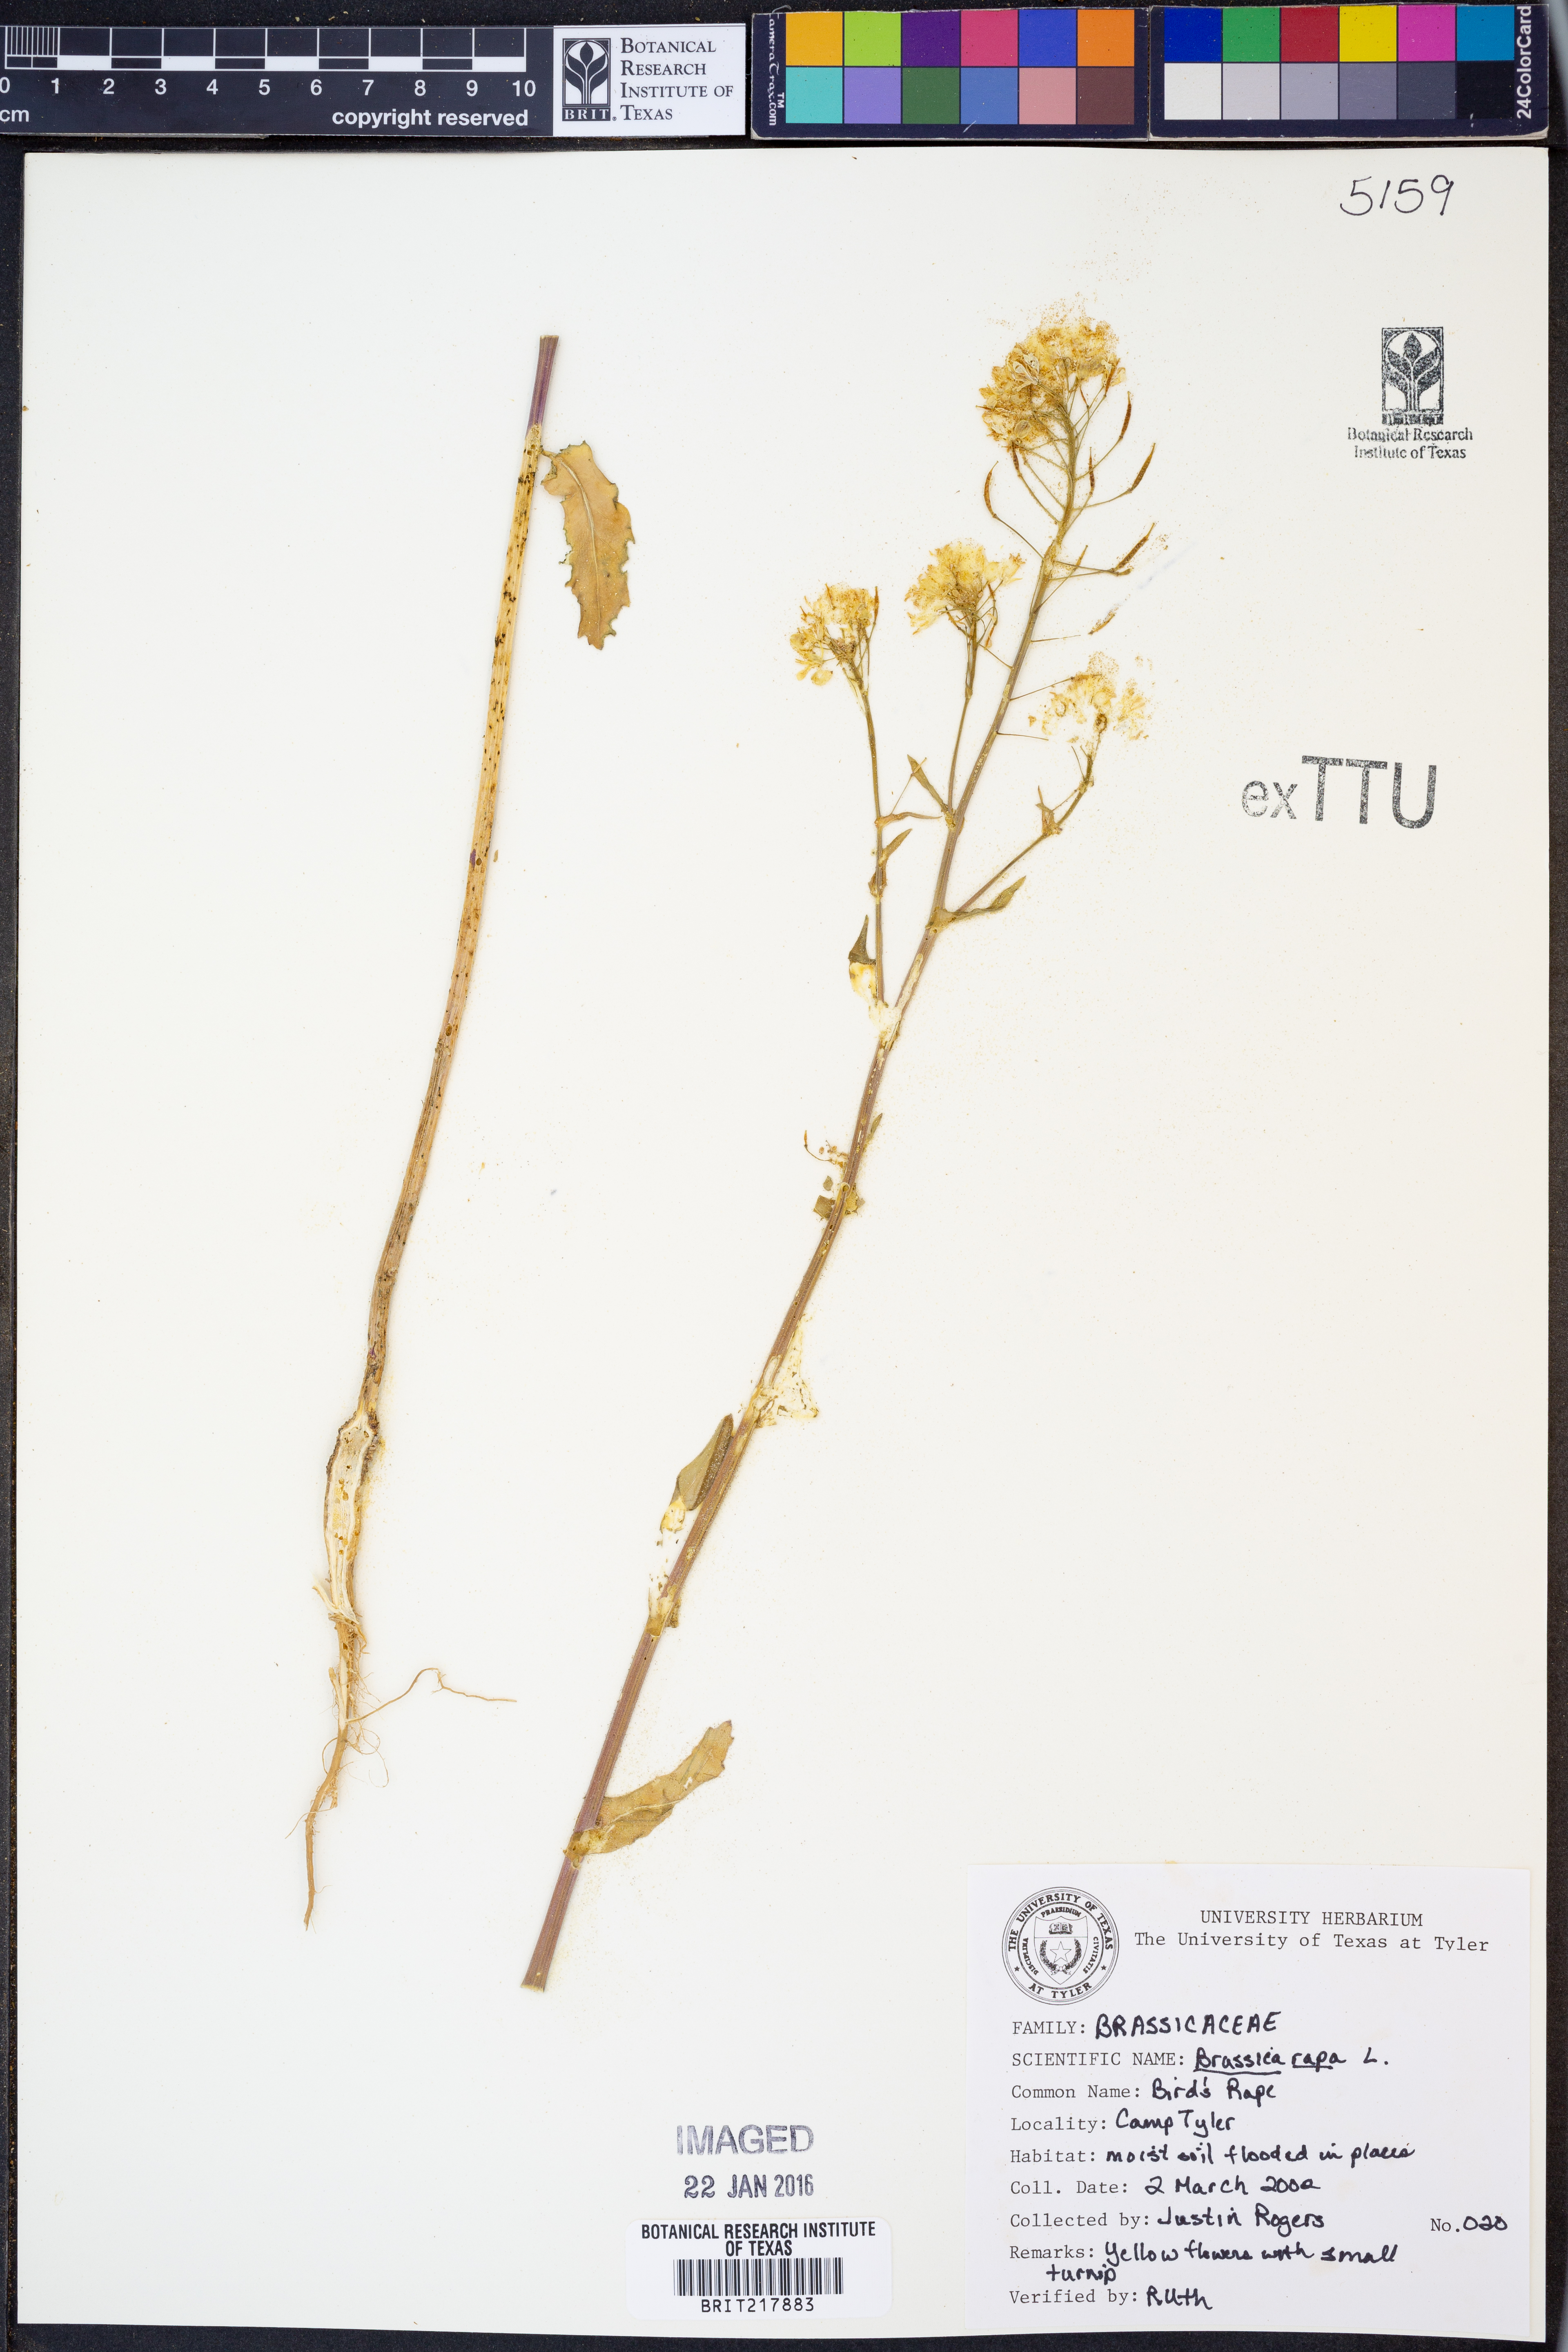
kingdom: Plantae
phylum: Tracheophyta
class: Magnoliopsida
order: Brassicales
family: Brassicaceae
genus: Brassica
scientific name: Brassica rapa
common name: Field mustard
